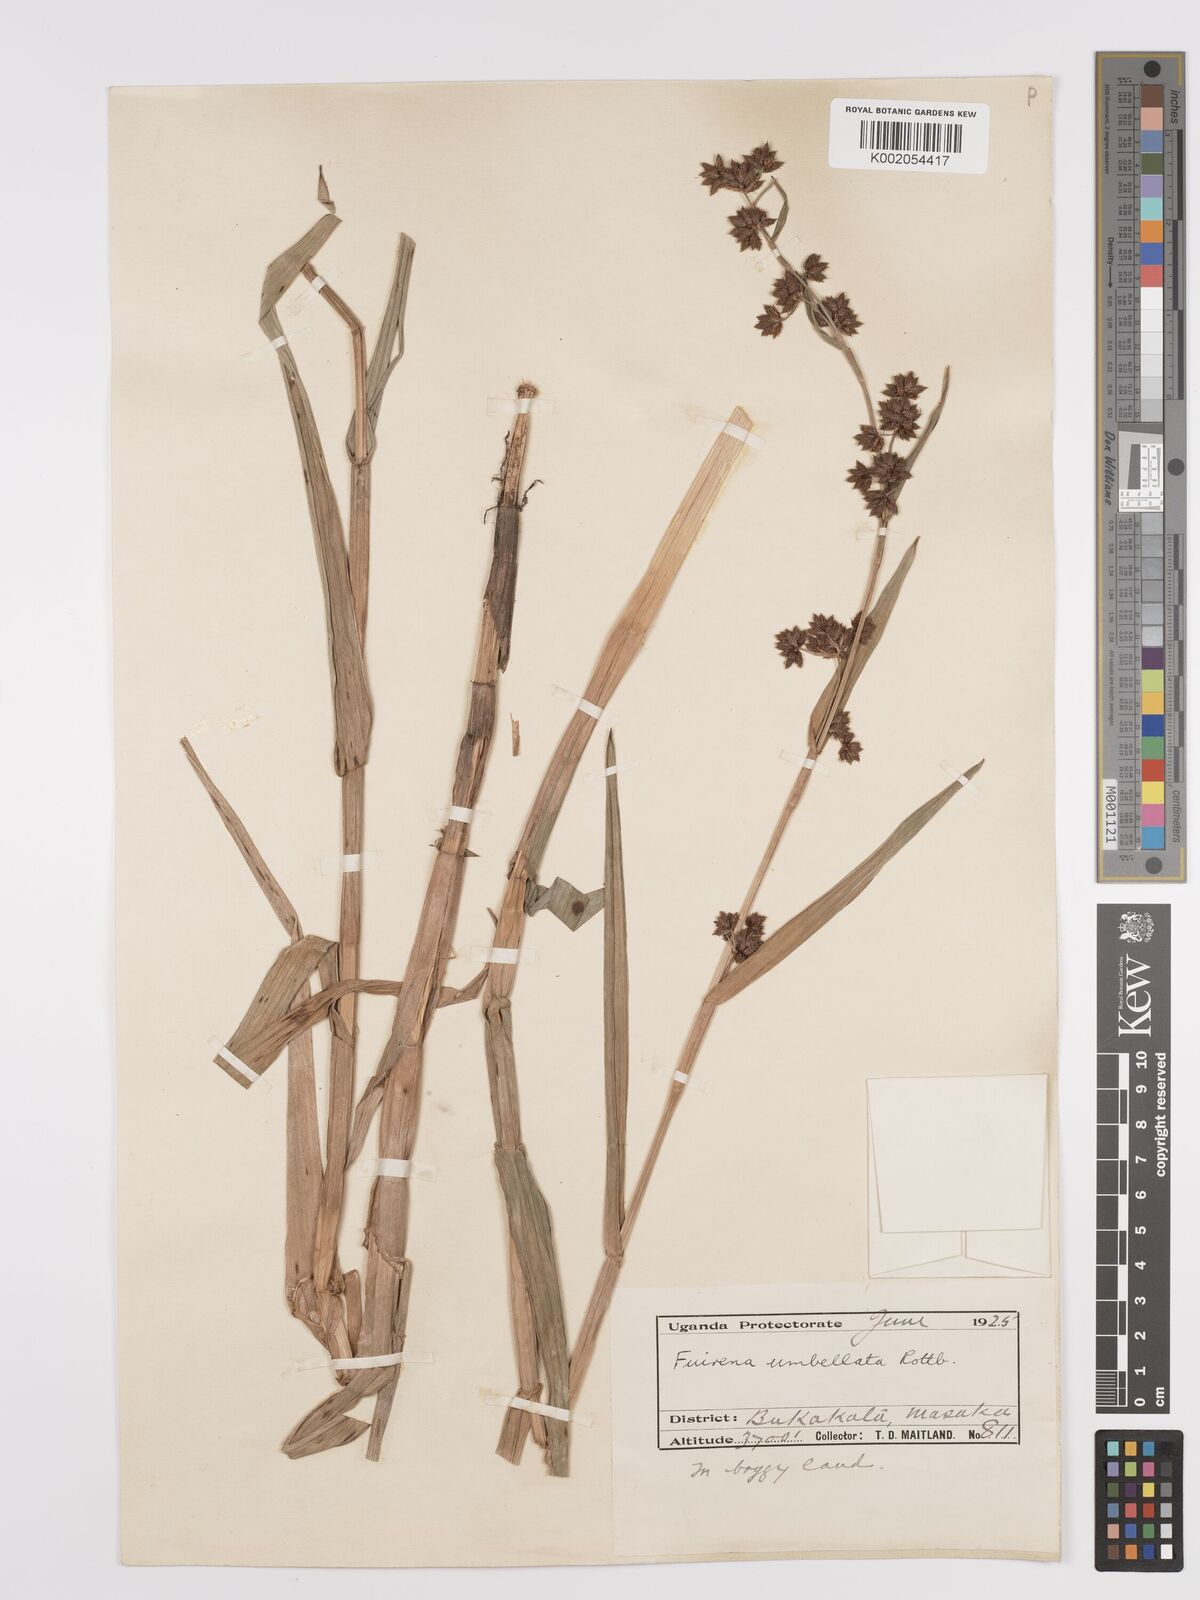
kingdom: Plantae
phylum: Tracheophyta
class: Liliopsida
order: Poales
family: Cyperaceae
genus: Fuirena
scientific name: Fuirena umbellata
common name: Yefen
